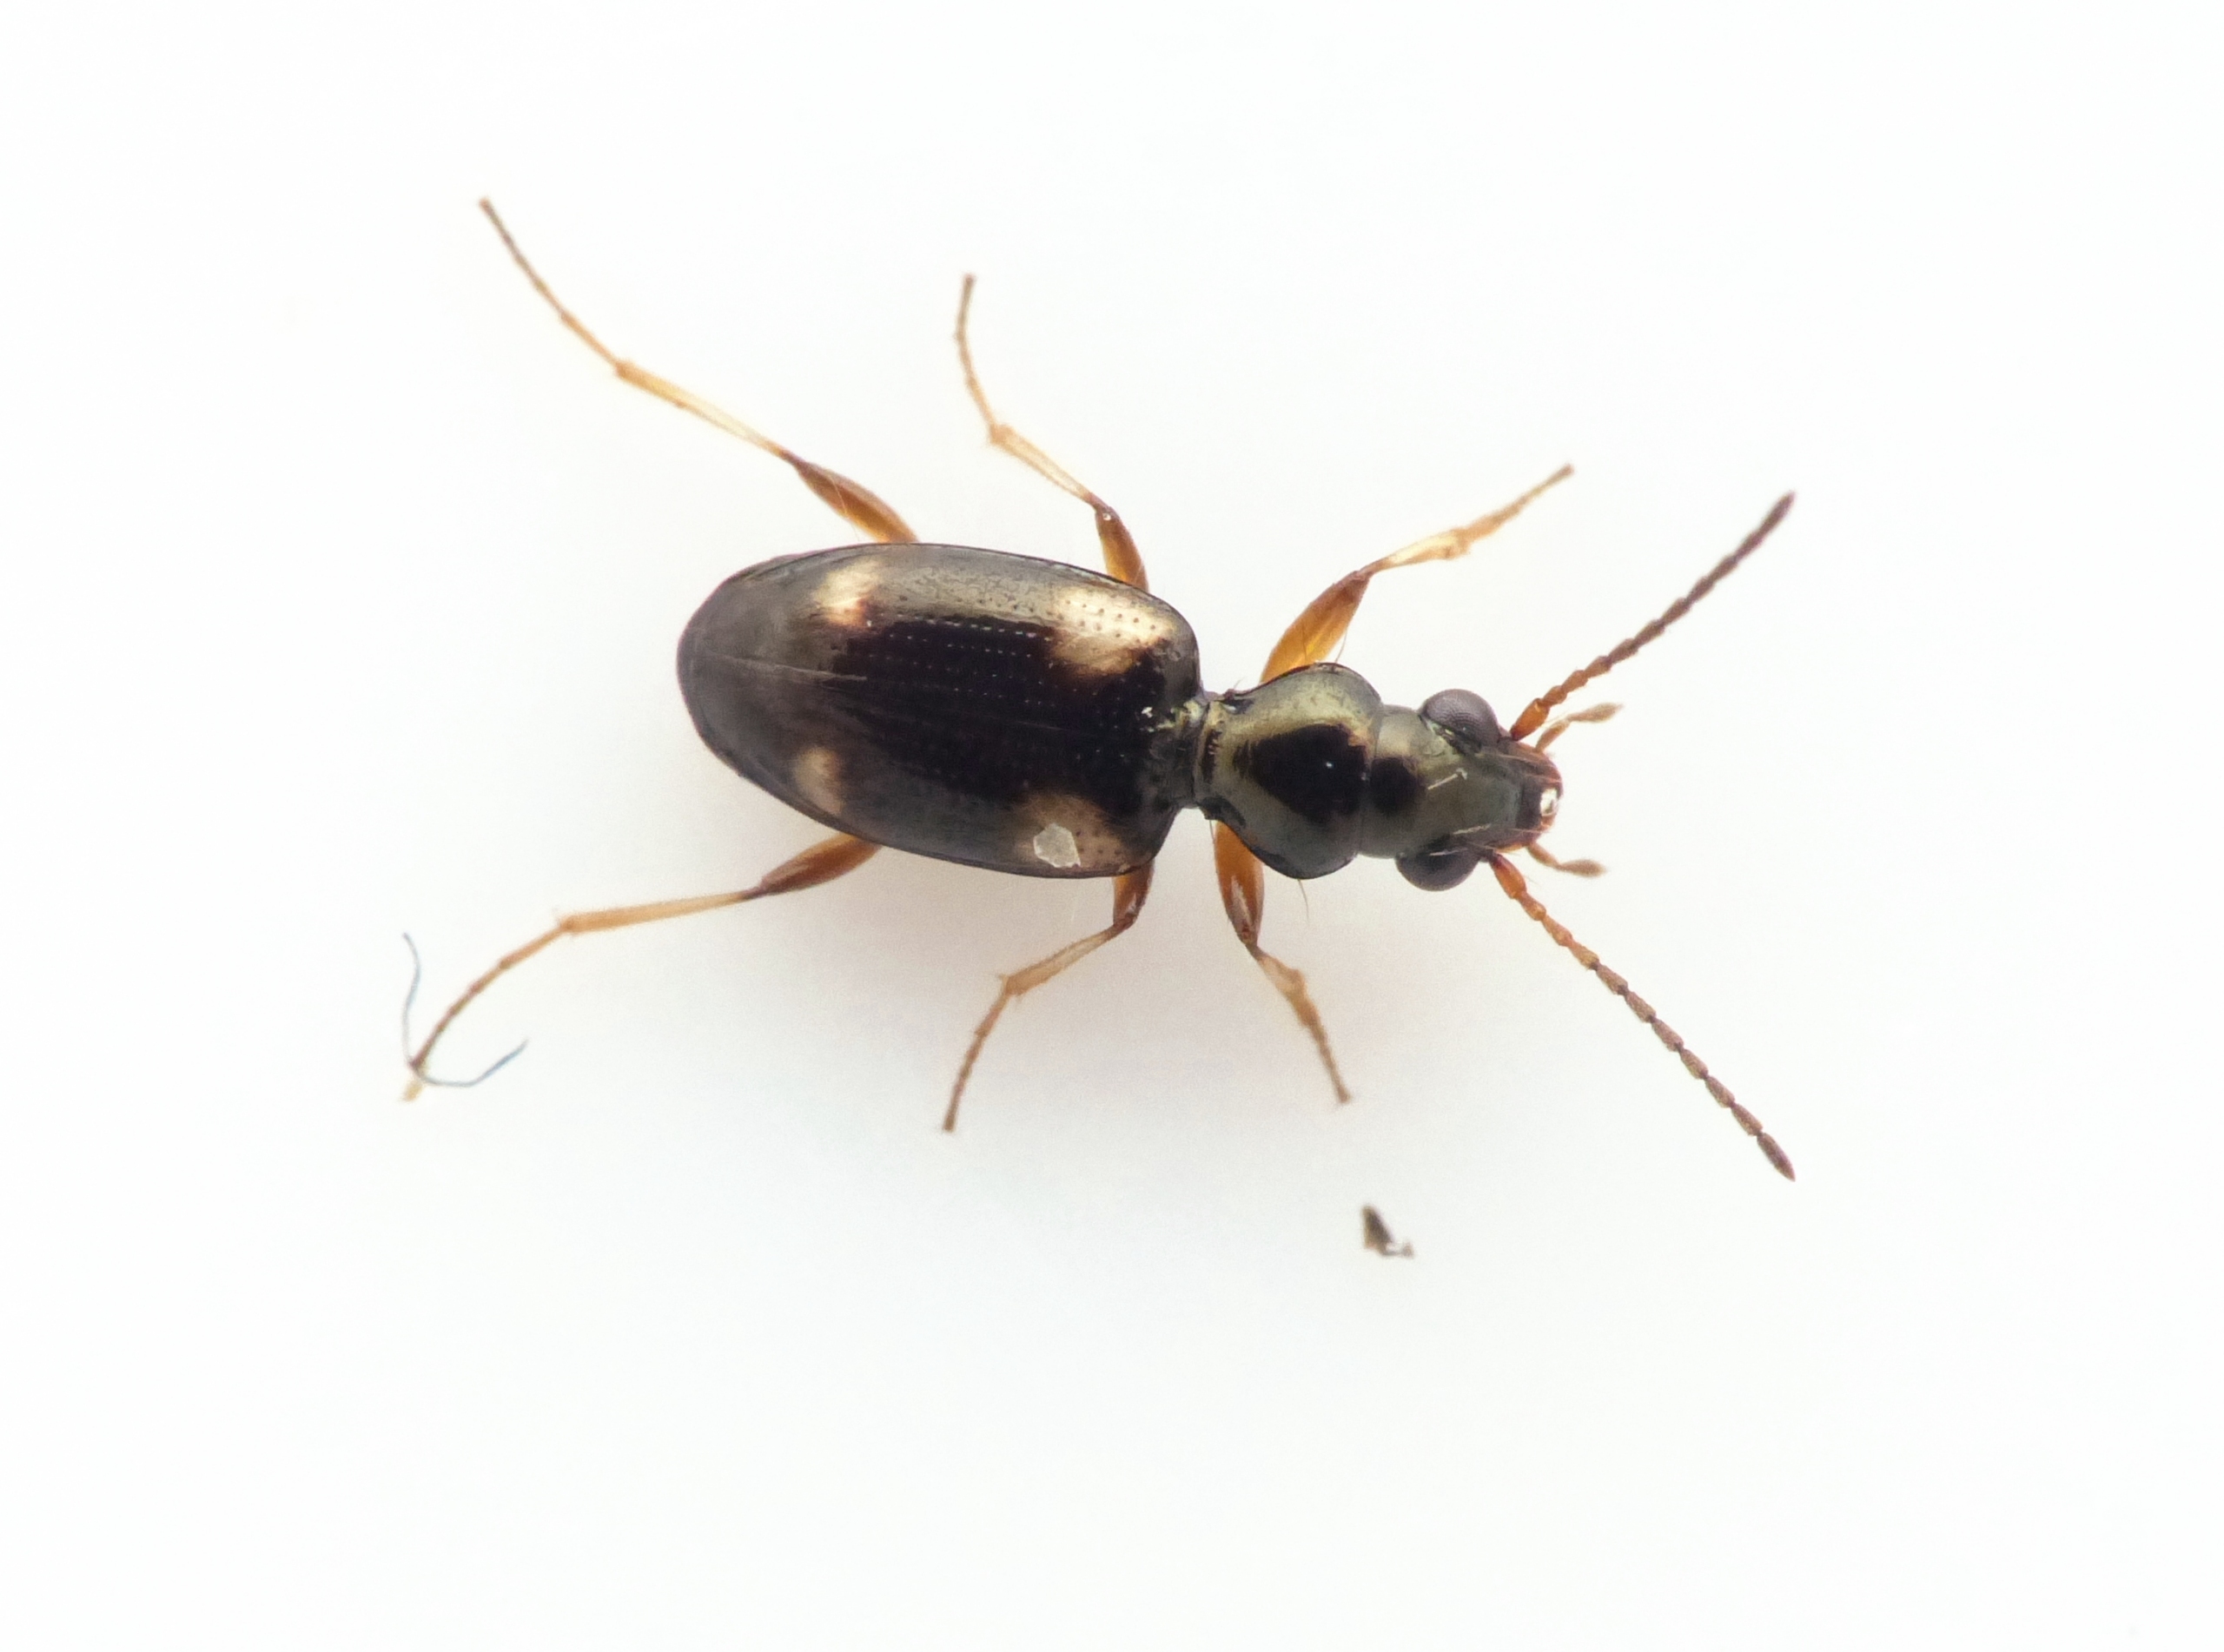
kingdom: Animalia
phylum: Arthropoda
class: Insecta
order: Coleoptera
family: Carabidae
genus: Bembidion
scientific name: Bembidion quadrimaculatum
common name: Lille firplettet glansløber
